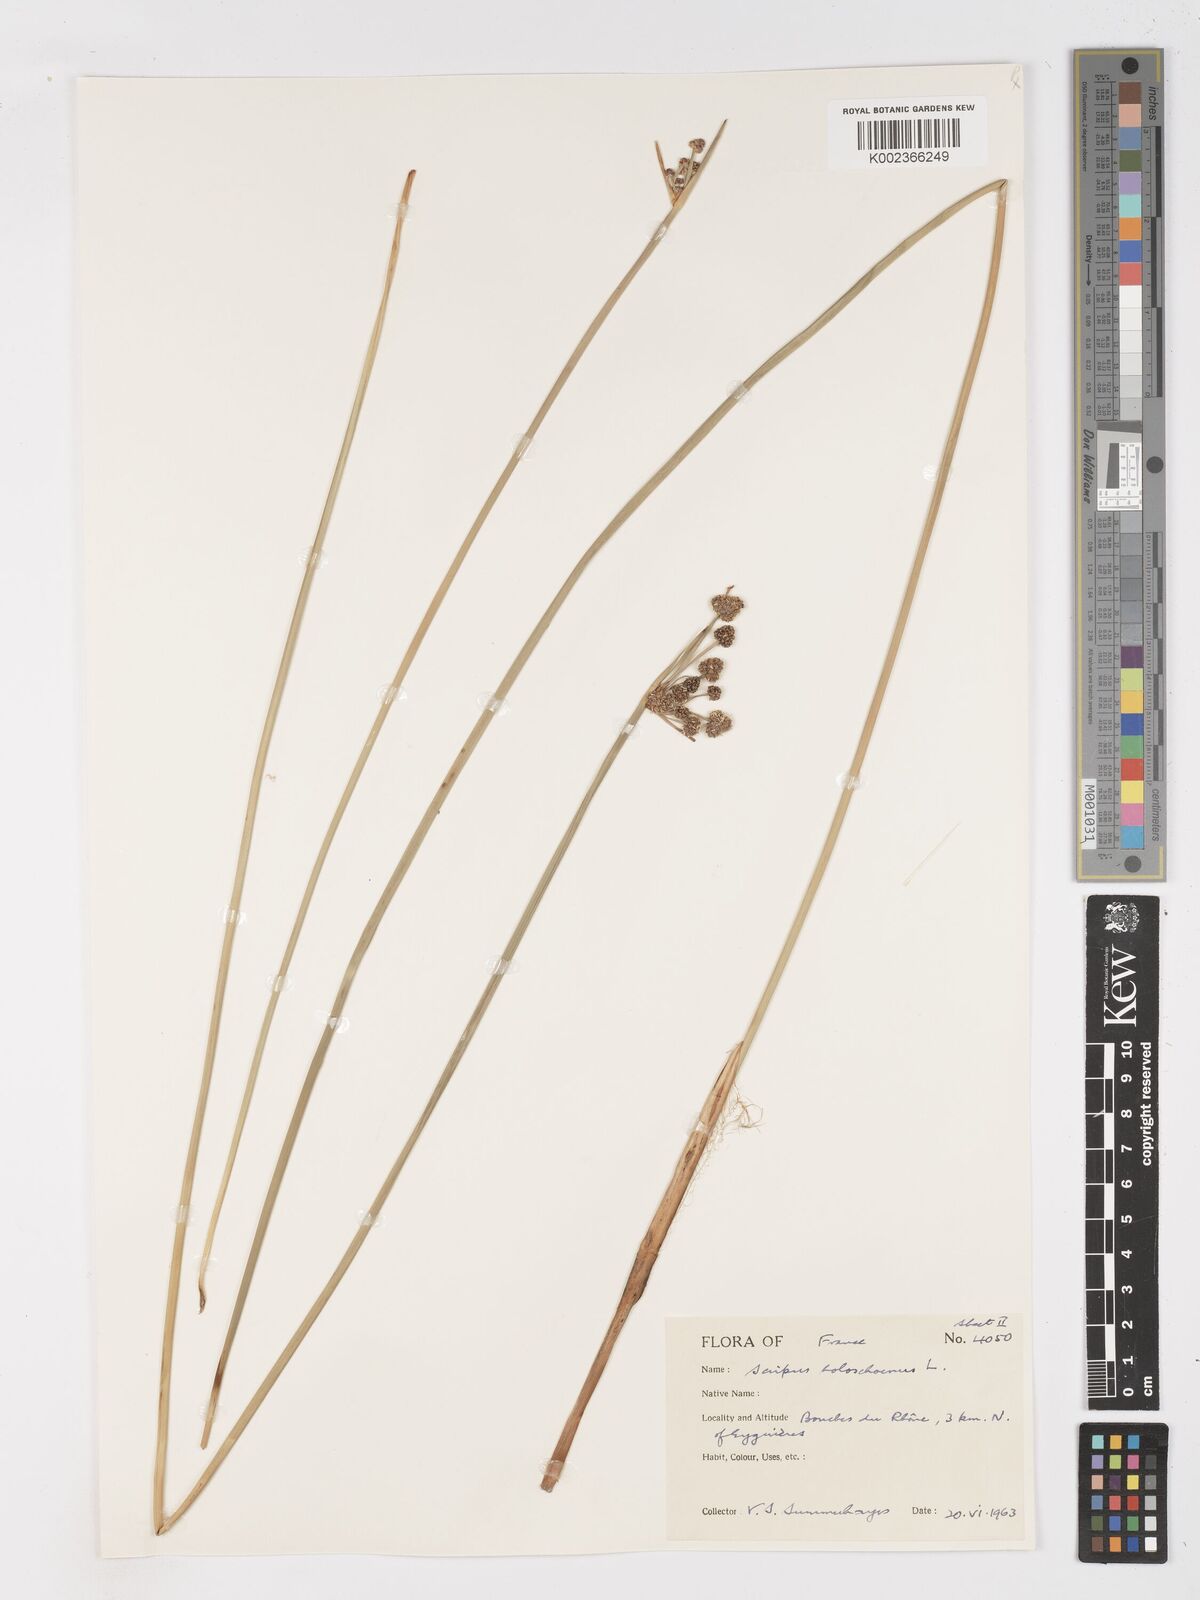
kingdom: Plantae
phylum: Tracheophyta
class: Liliopsida
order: Poales
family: Cyperaceae
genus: Scirpoides
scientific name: Scirpoides holoschoenus
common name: Round-headed club-rush
